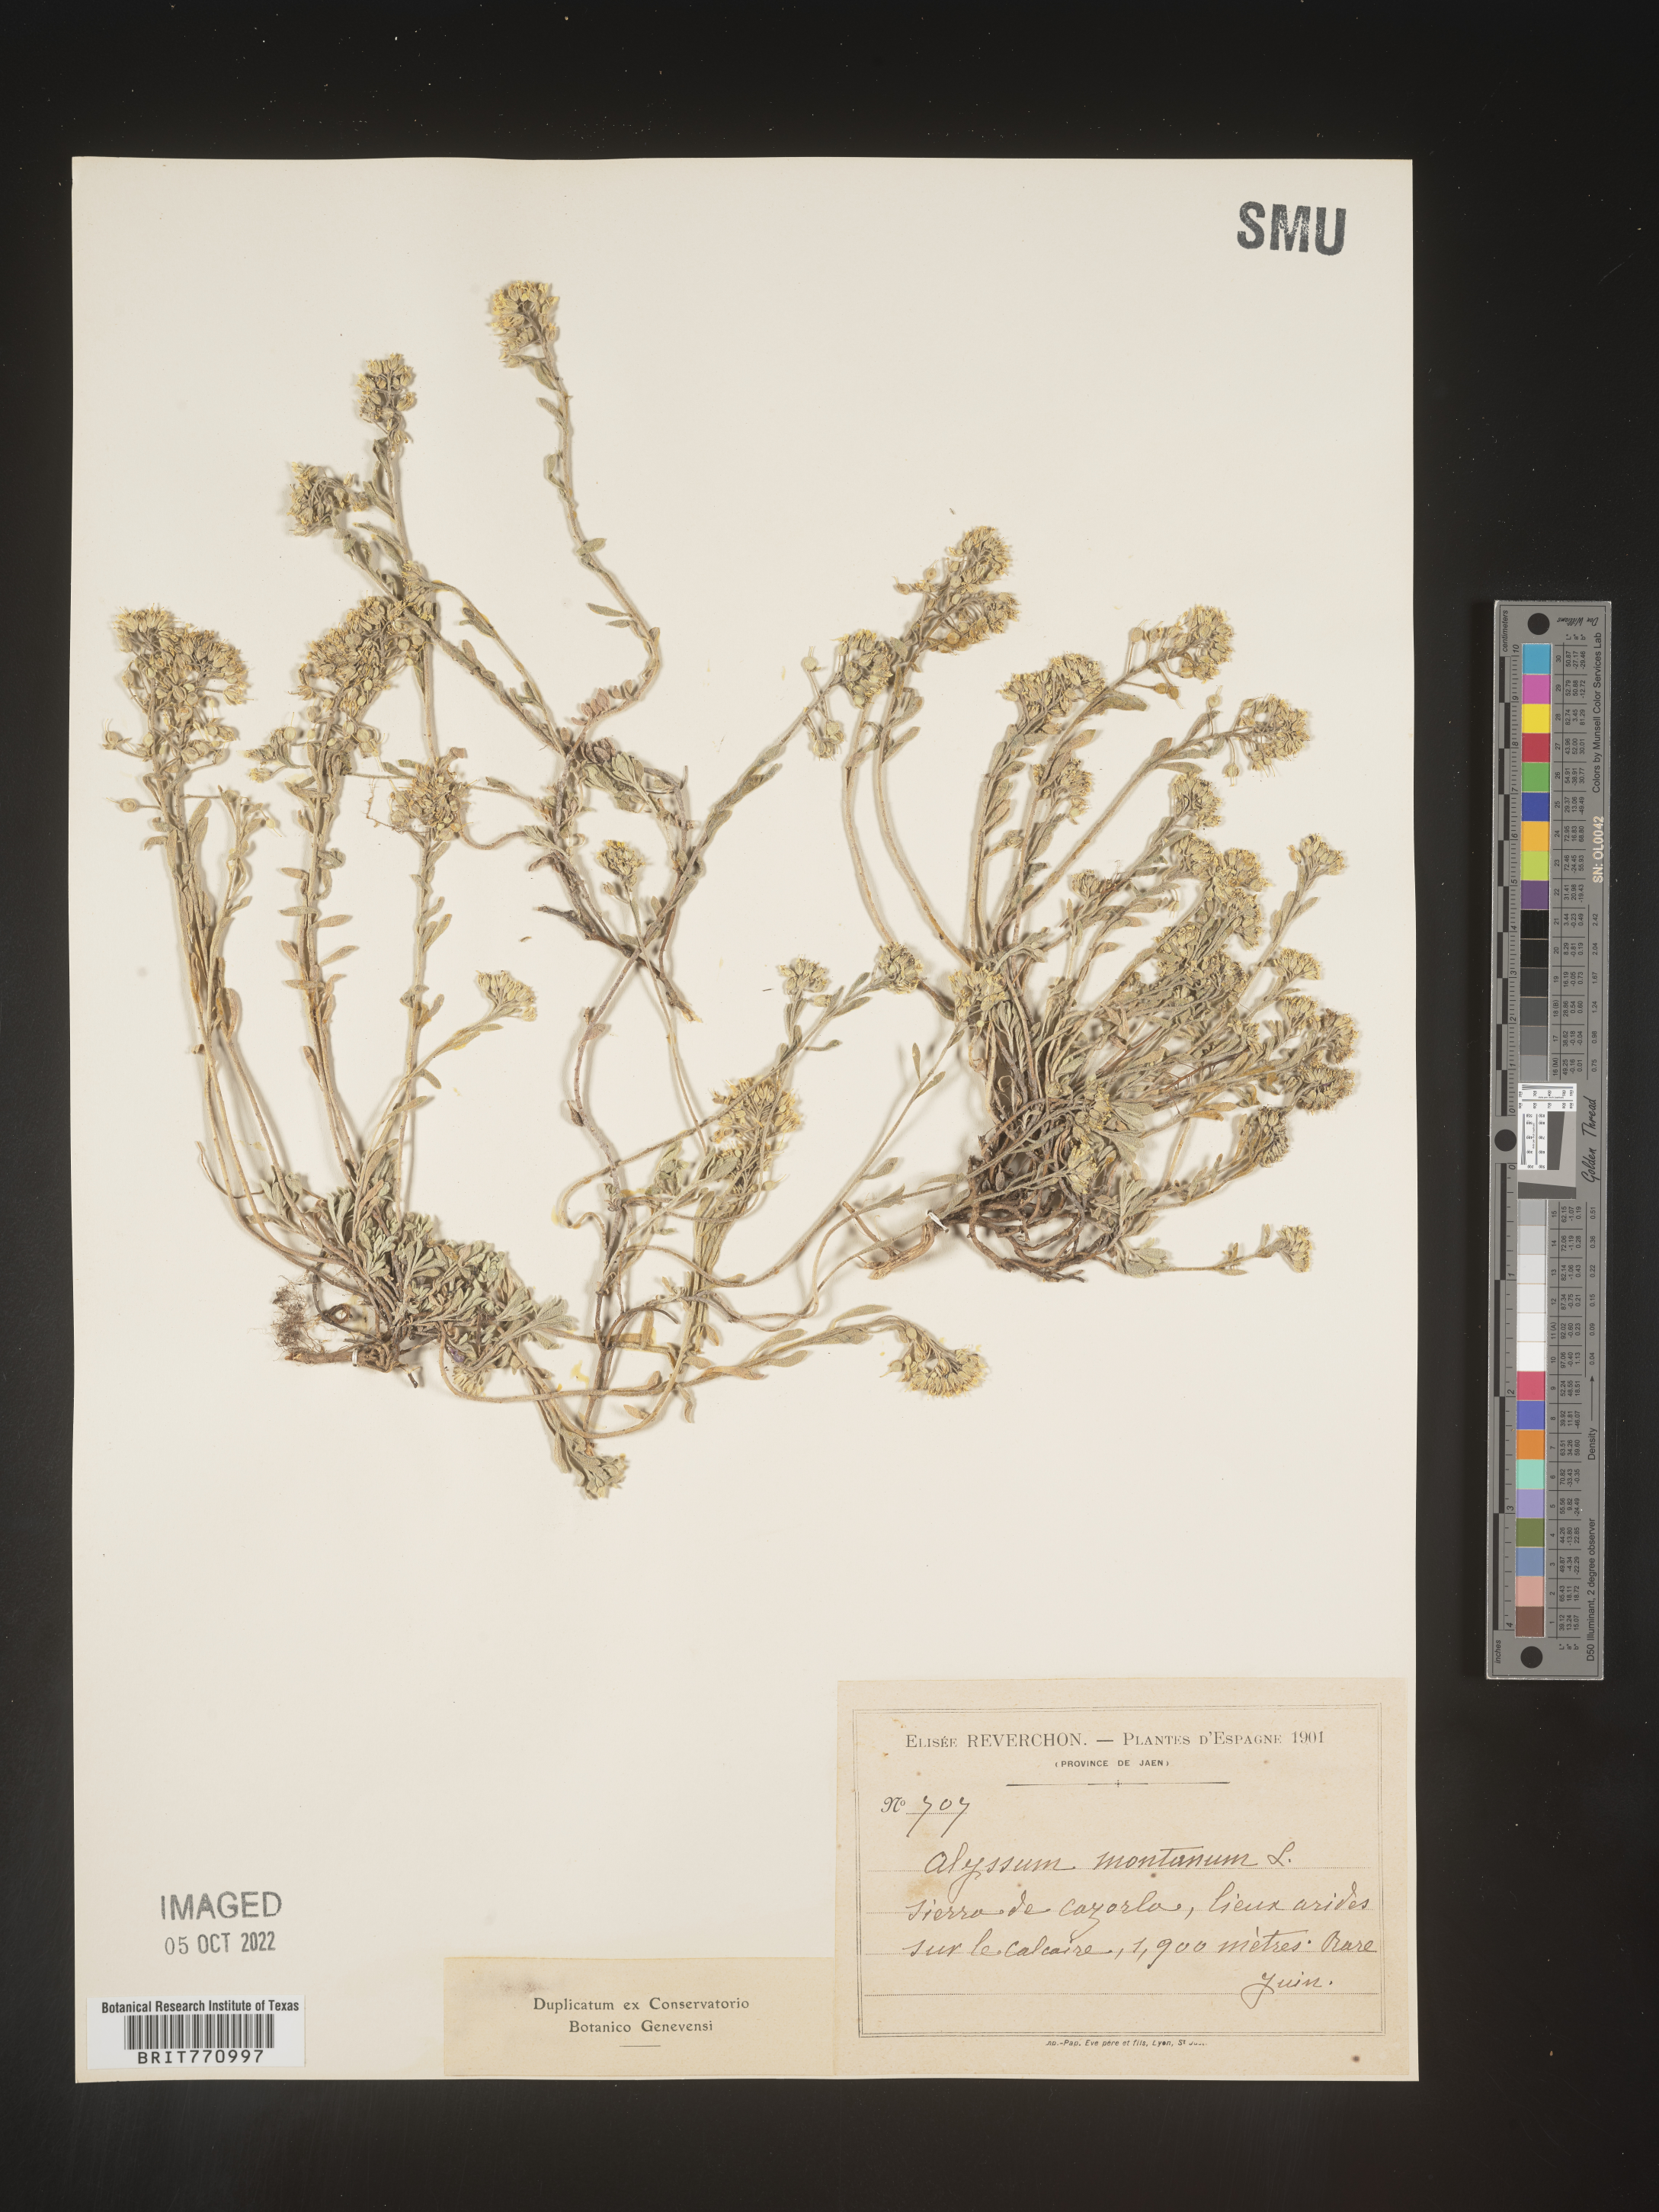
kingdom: Plantae
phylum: Tracheophyta
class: Magnoliopsida
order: Brassicales
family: Brassicaceae
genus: Alyssum
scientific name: Alyssum
